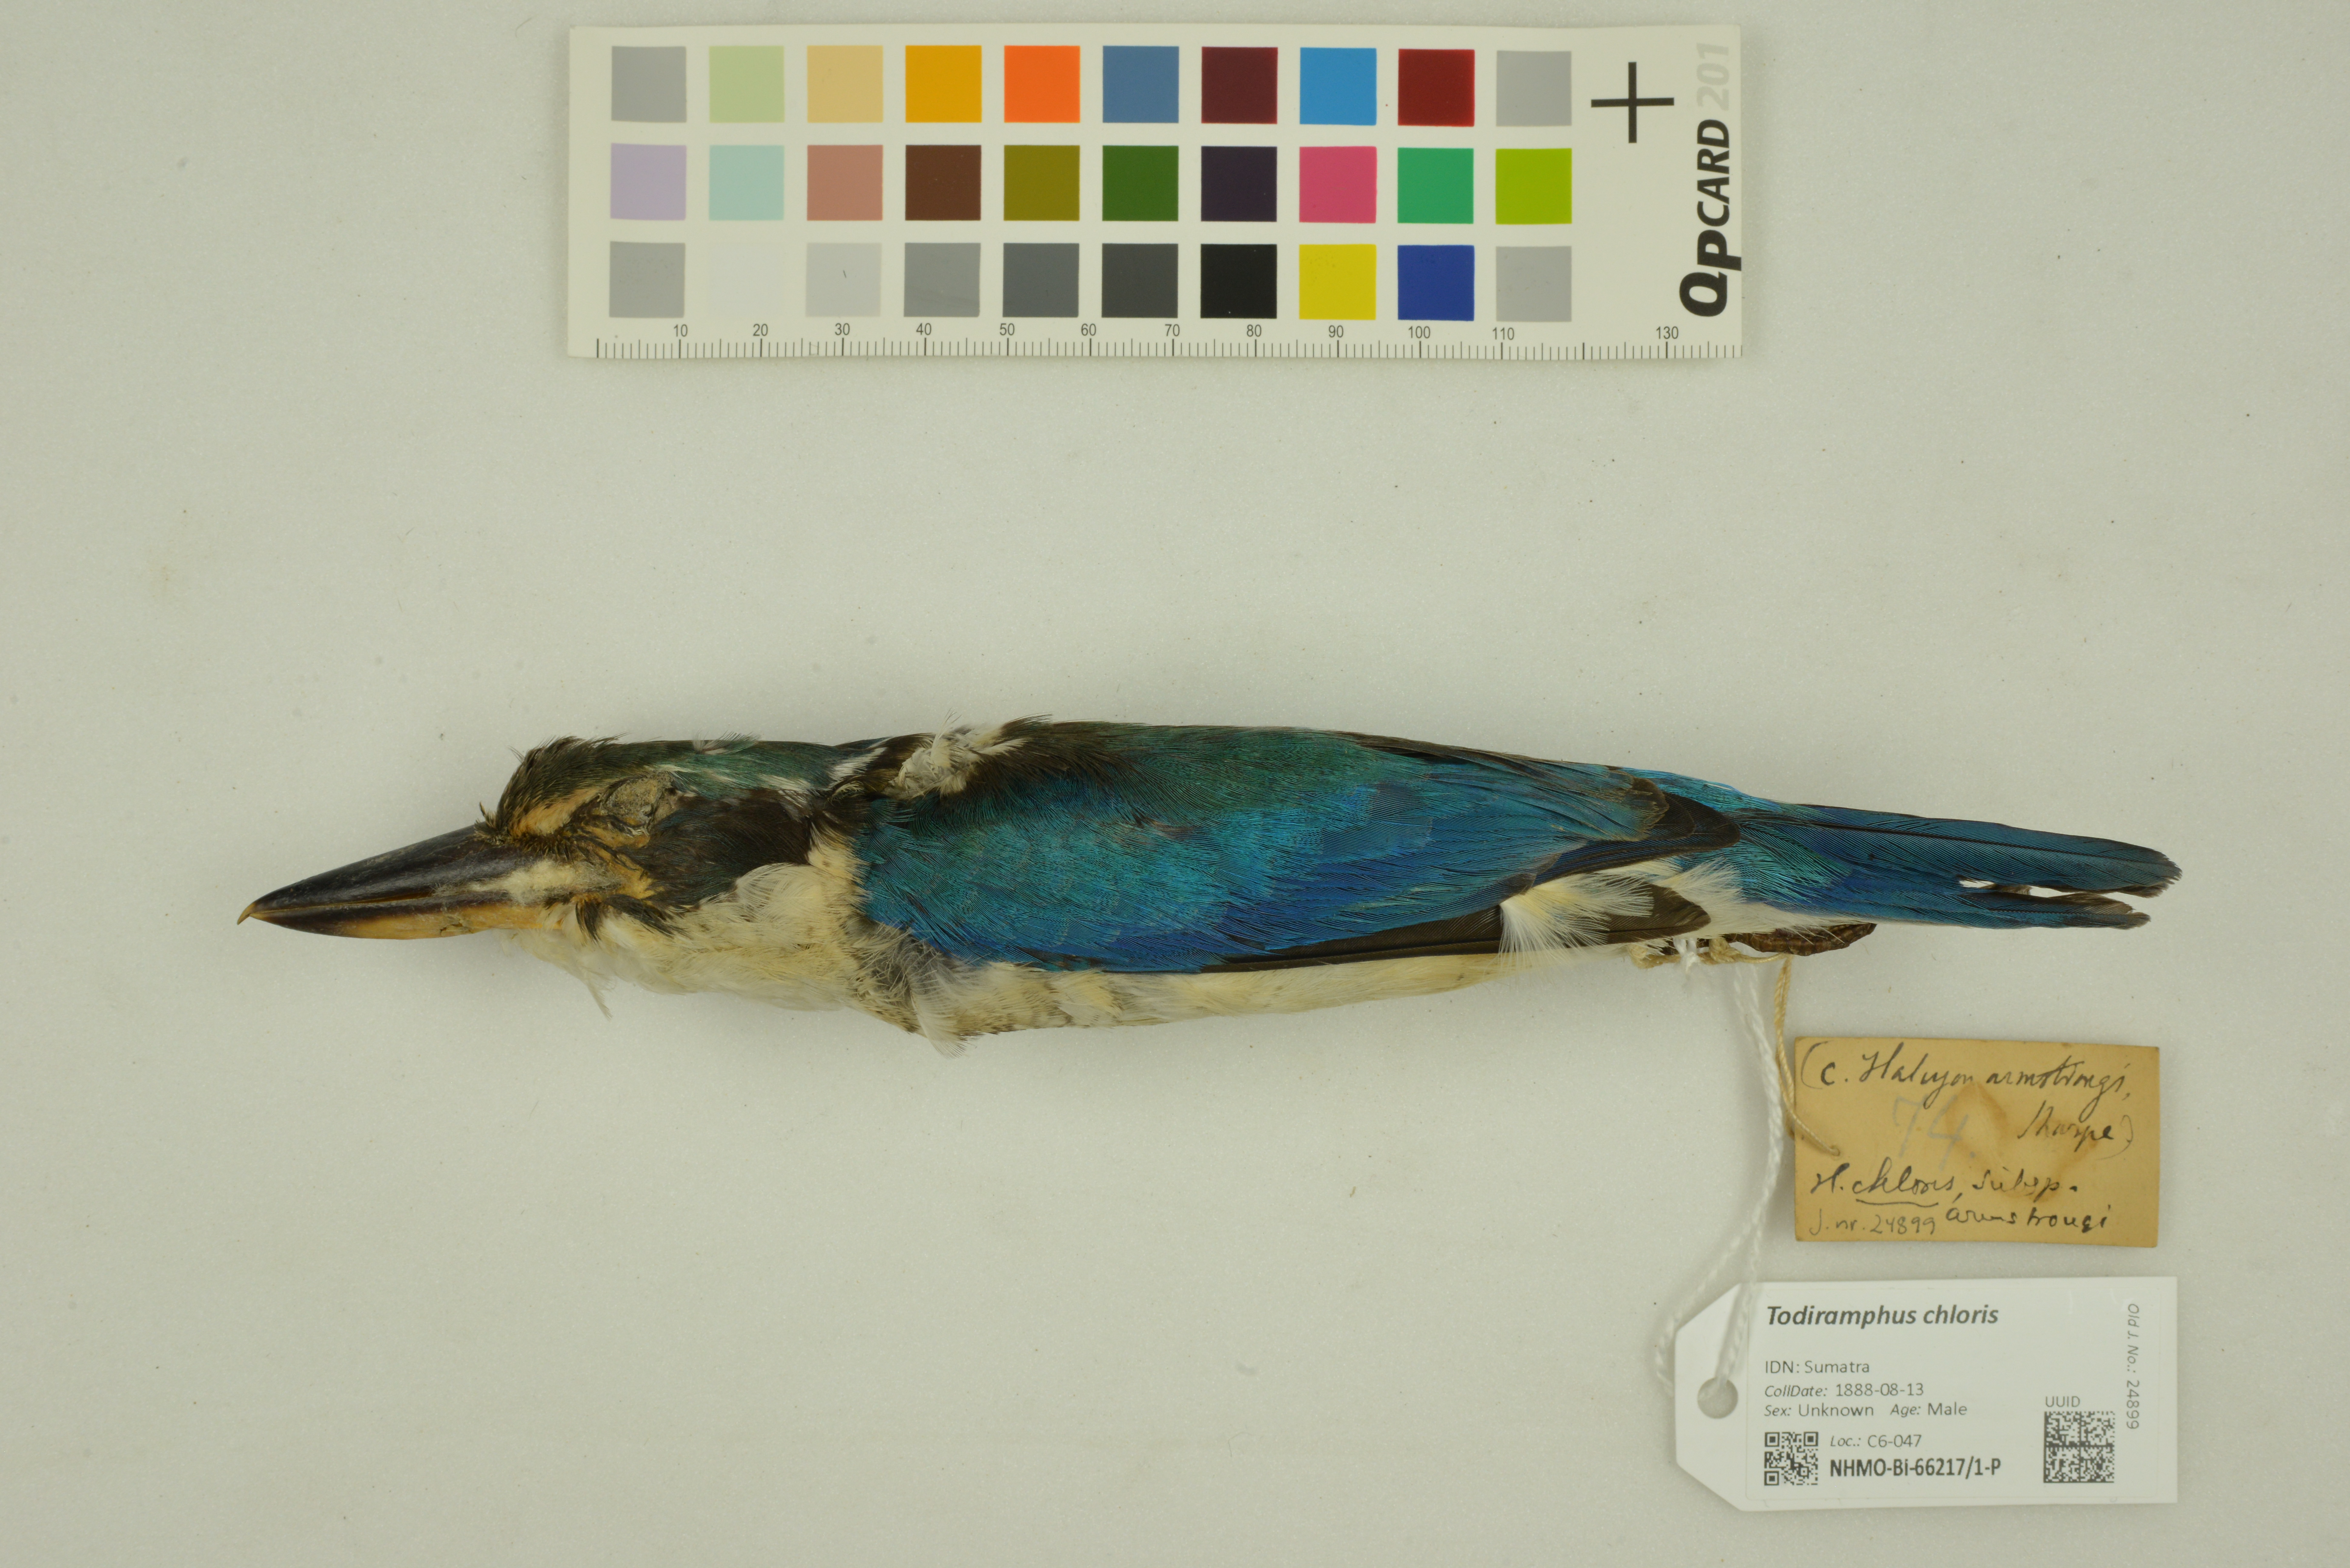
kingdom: Animalia
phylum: Chordata
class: Aves
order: Coraciiformes
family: Alcedinidae
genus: Todiramphus
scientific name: Todiramphus chloris
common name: Collared kingfisher
